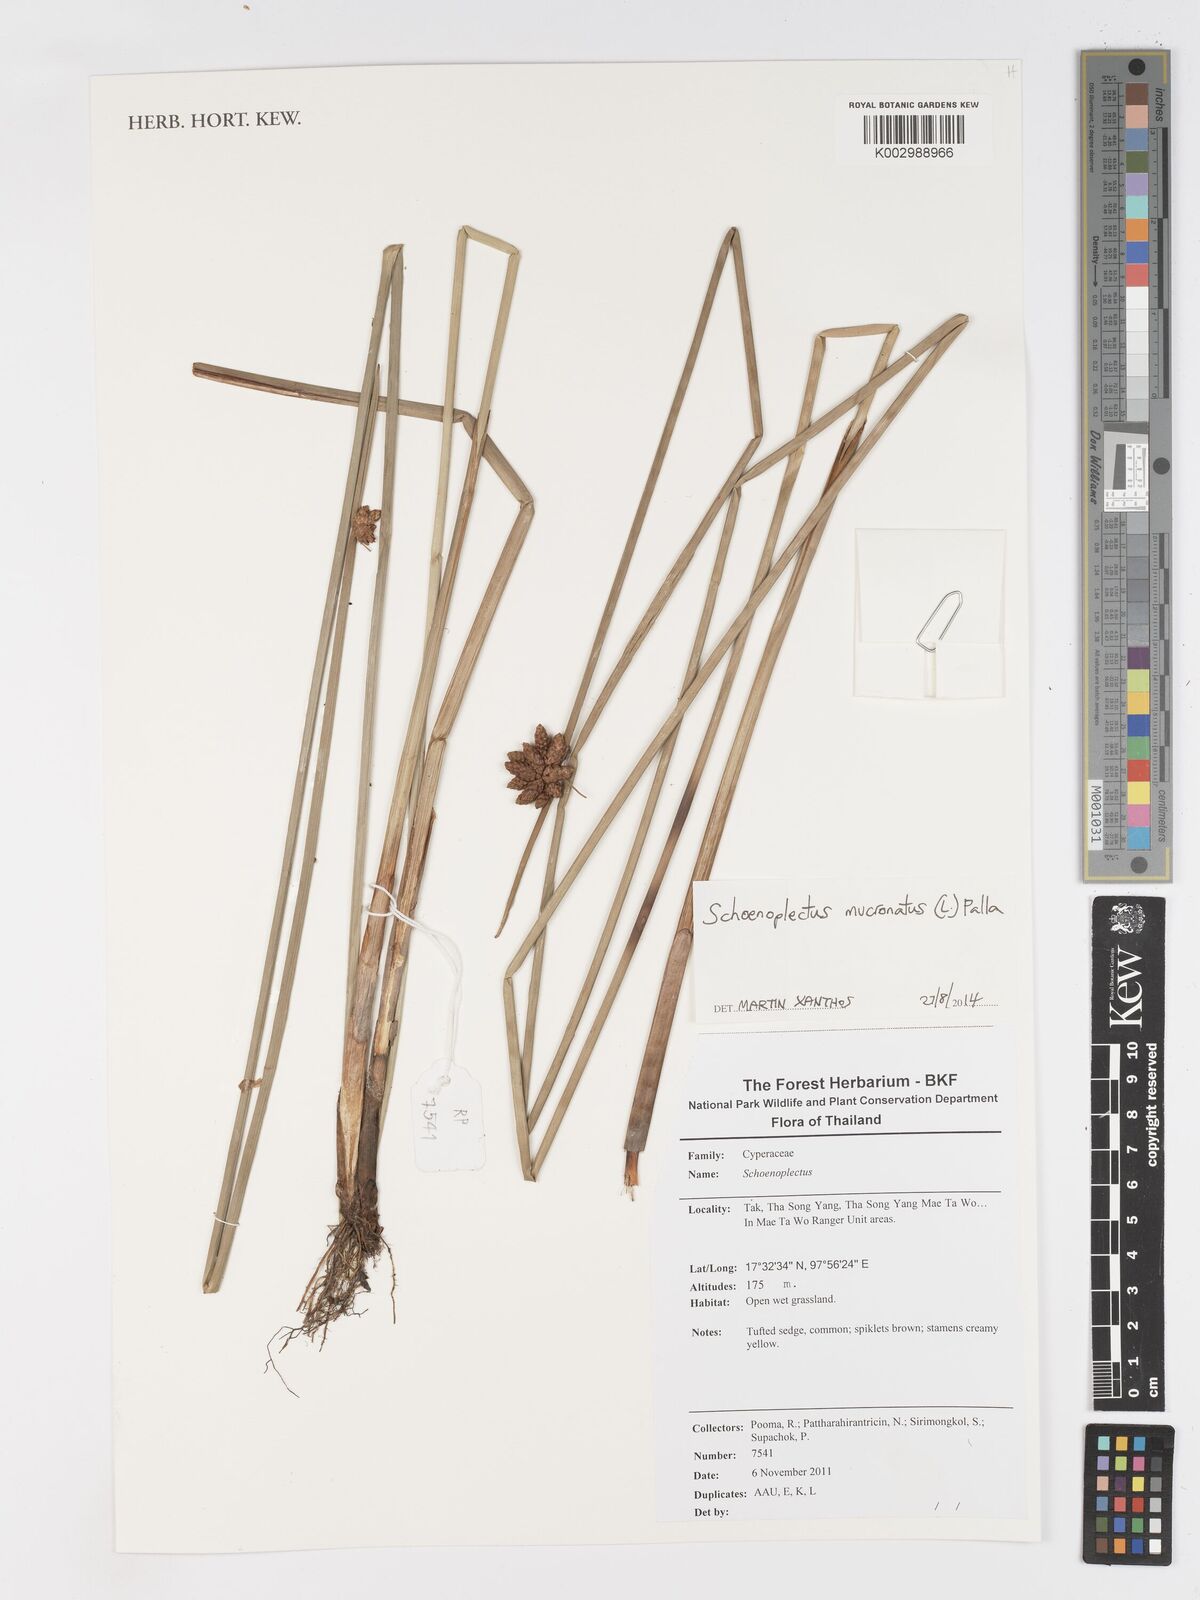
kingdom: Plantae
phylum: Tracheophyta
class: Liliopsida
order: Poales
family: Cyperaceae
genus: Schoenoplectiella
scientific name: Schoenoplectiella mucronata
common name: Bog bulrush
